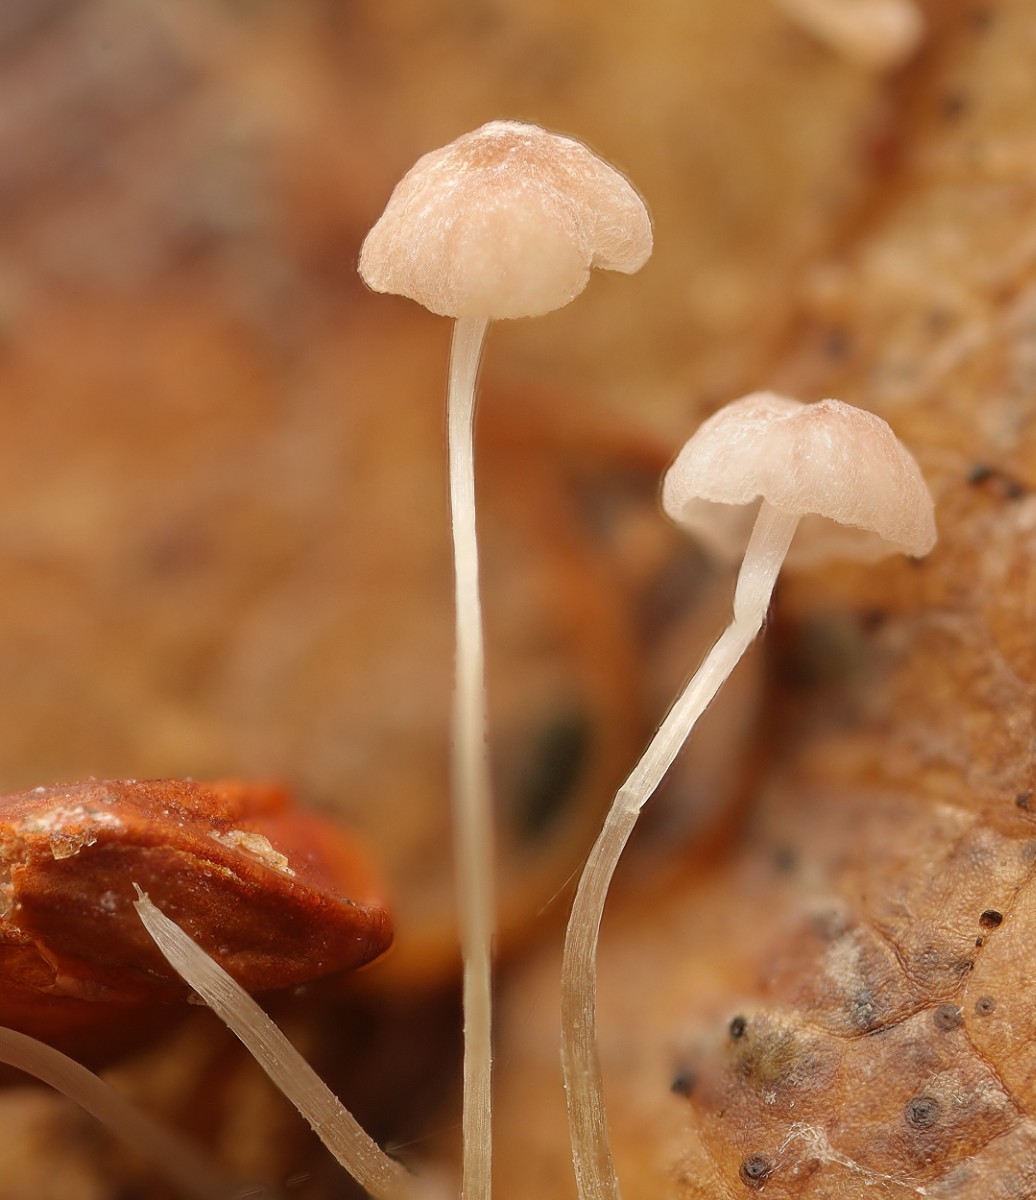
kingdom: Fungi
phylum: Basidiomycota
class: Agaricomycetes
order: Agaricales
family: Mycenaceae
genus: Mycena
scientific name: Mycena smithiana
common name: blegrød huesvamp
